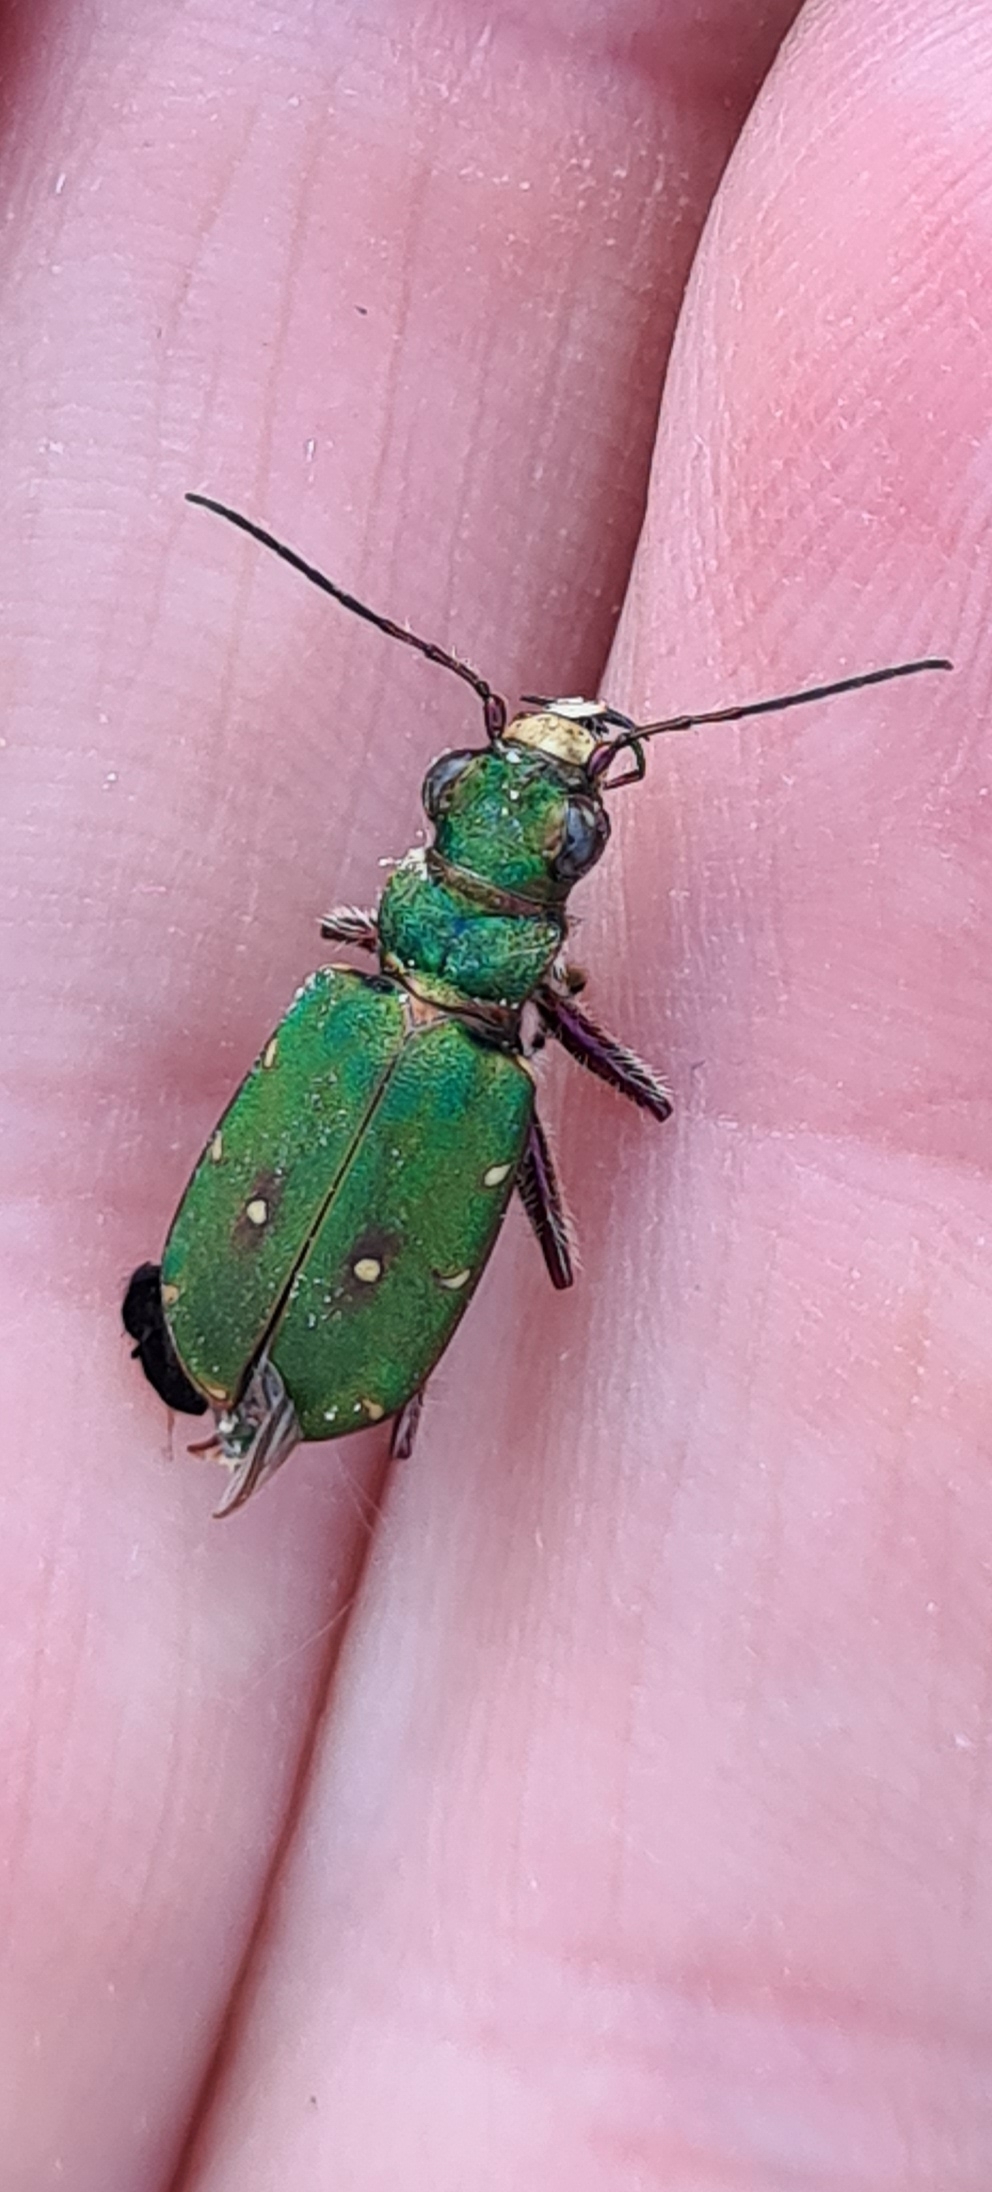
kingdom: Animalia
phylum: Arthropoda
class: Insecta
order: Coleoptera
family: Carabidae
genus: Cicindela
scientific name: Cicindela campestris
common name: Grøn sandspringer
